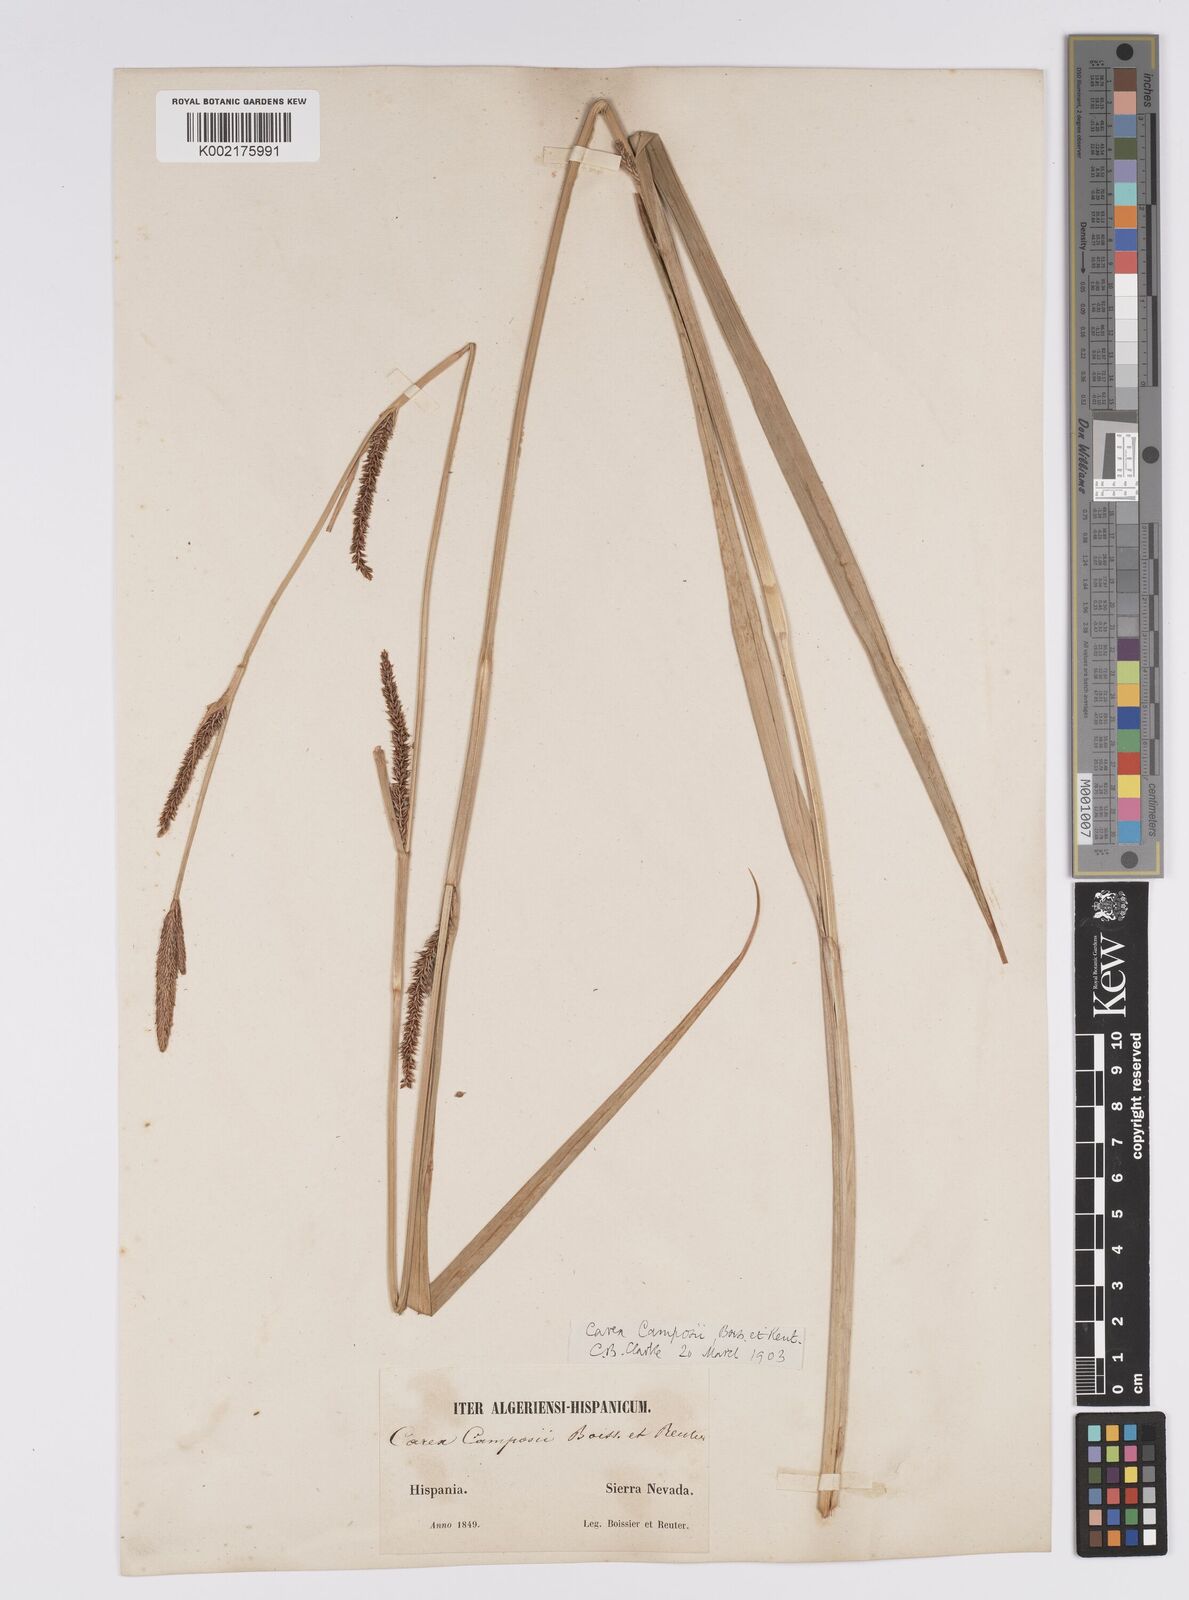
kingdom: Plantae
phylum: Tracheophyta
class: Liliopsida
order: Poales
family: Cyperaceae
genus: Carex
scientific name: Carex camposii
